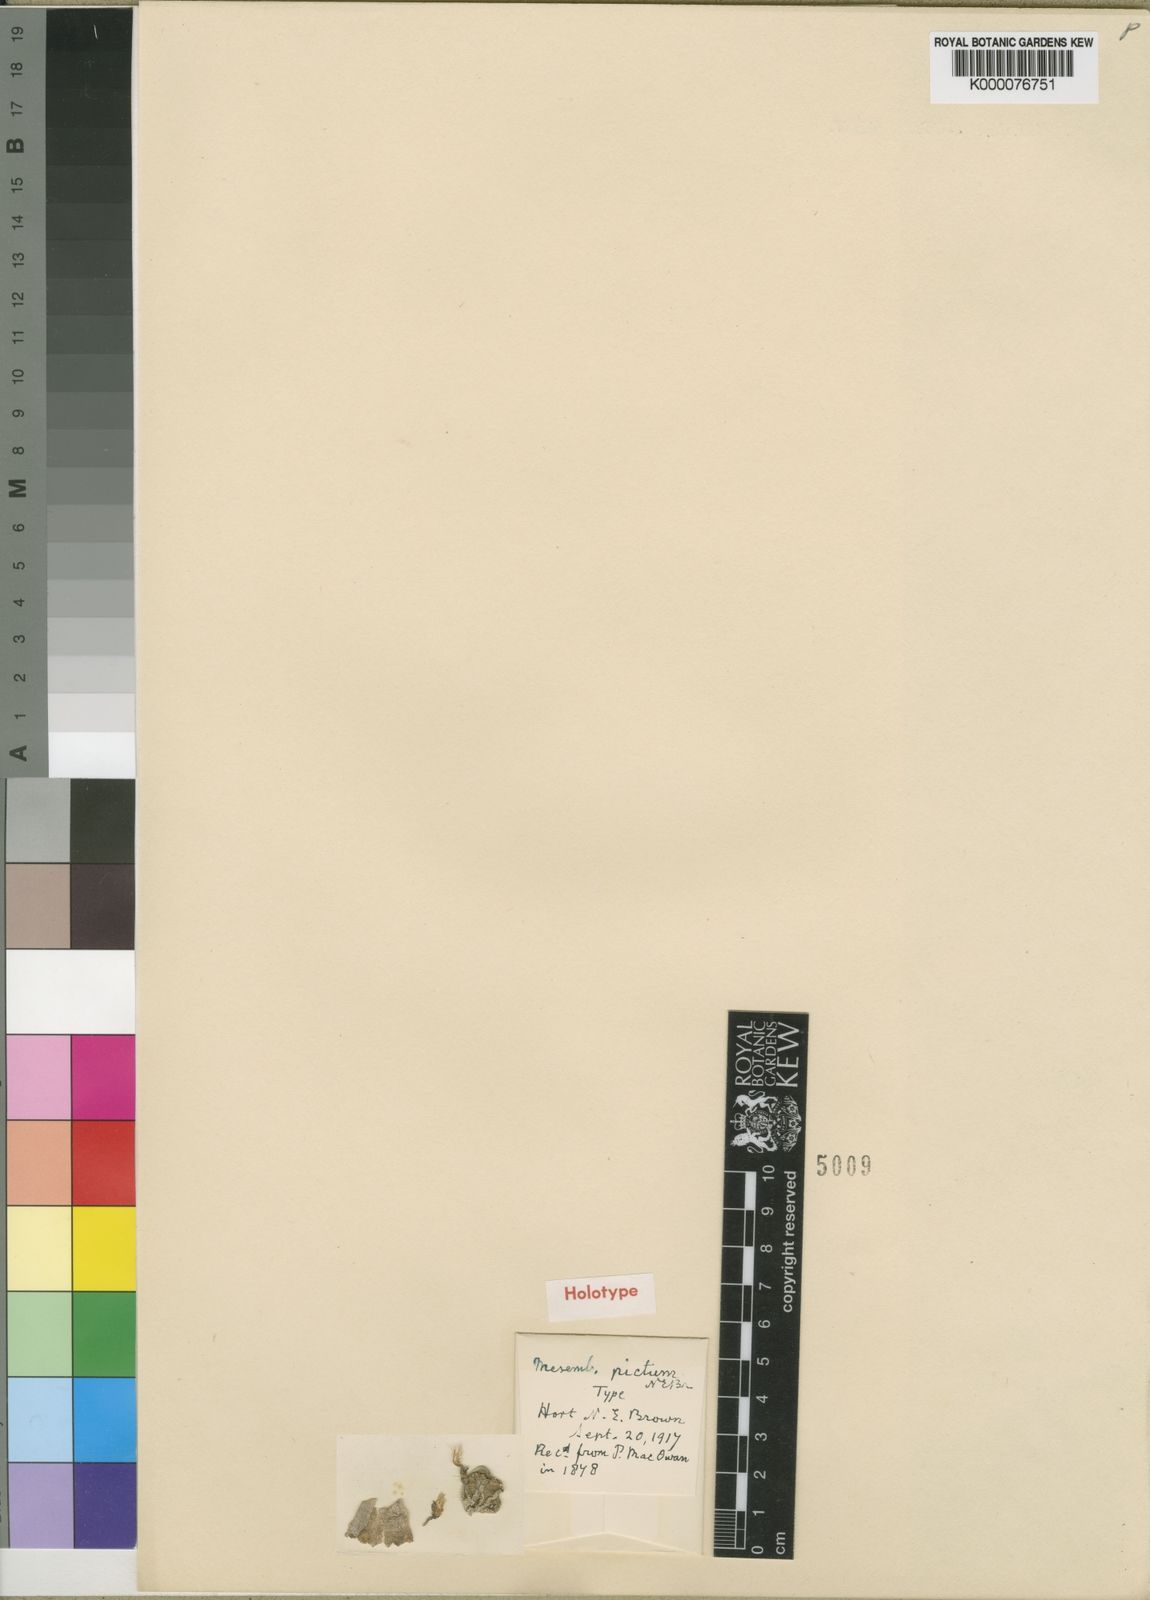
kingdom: Plantae
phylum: Tracheophyta
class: Magnoliopsida
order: Caryophyllales
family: Aizoaceae
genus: Conophytum
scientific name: Conophytum minimum
